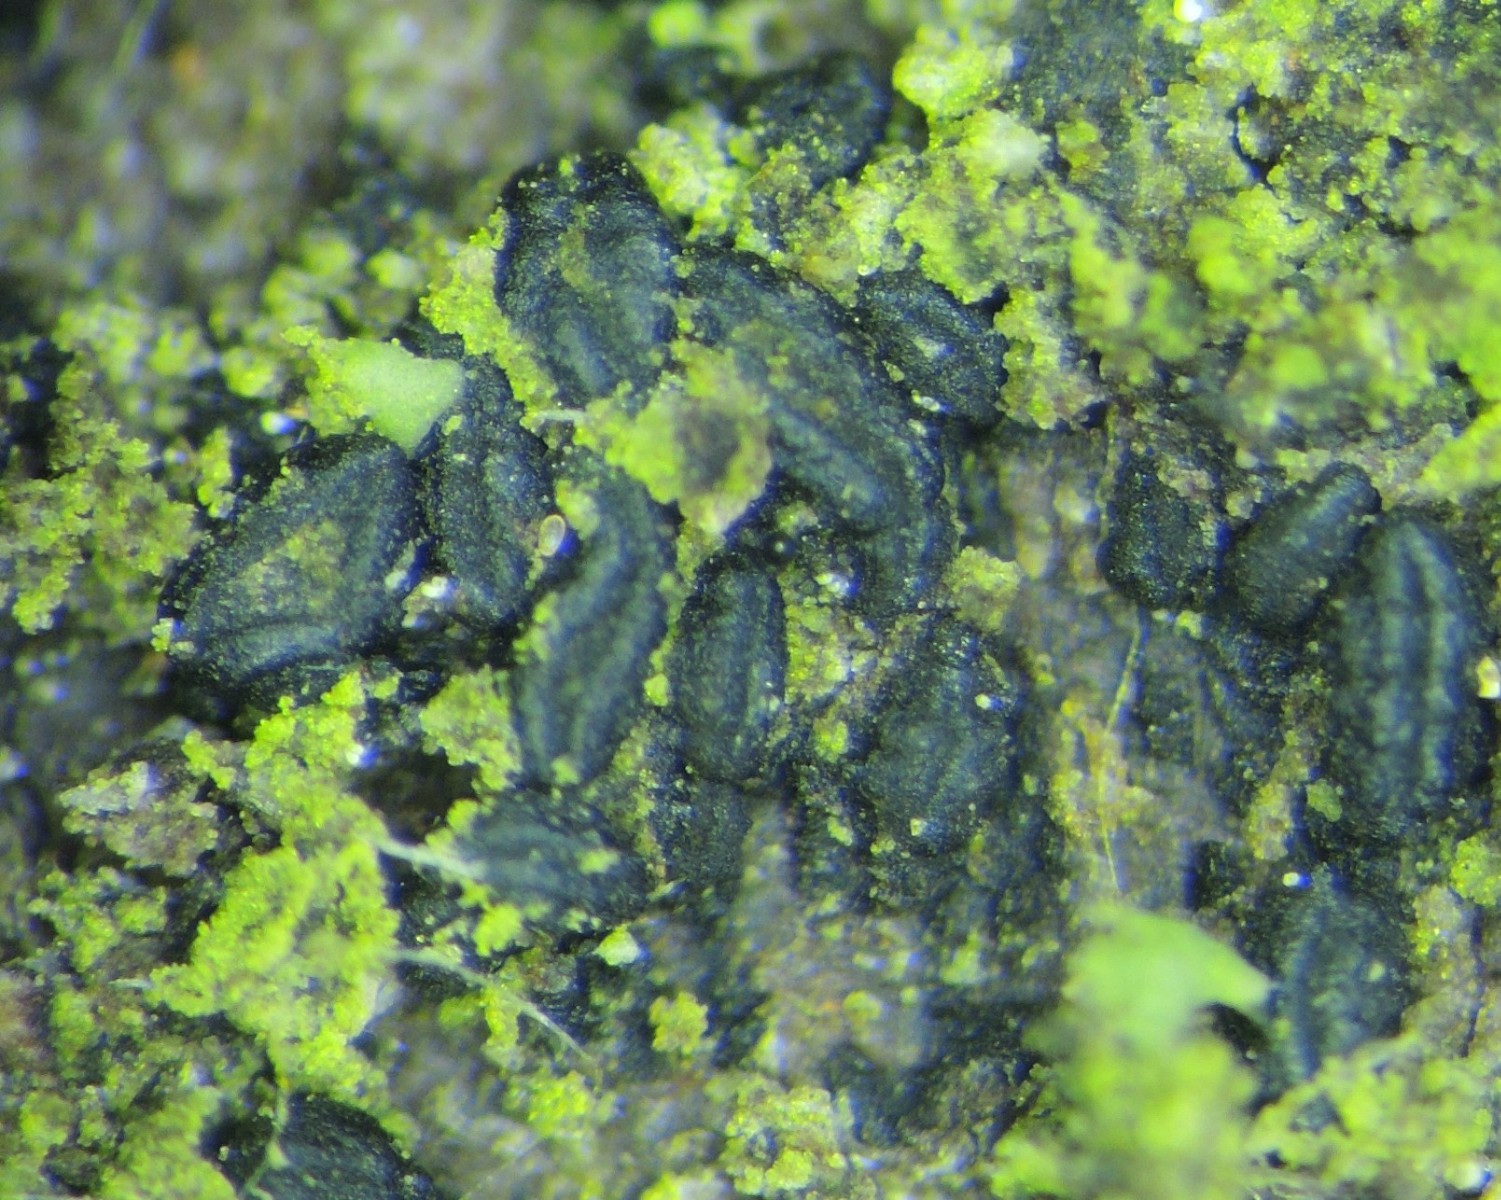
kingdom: Fungi
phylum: Ascomycota
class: Dothideomycetes
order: Hysteriales
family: Hysteriaceae
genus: Hysterobrevium
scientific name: Hysterobrevium smilacis
